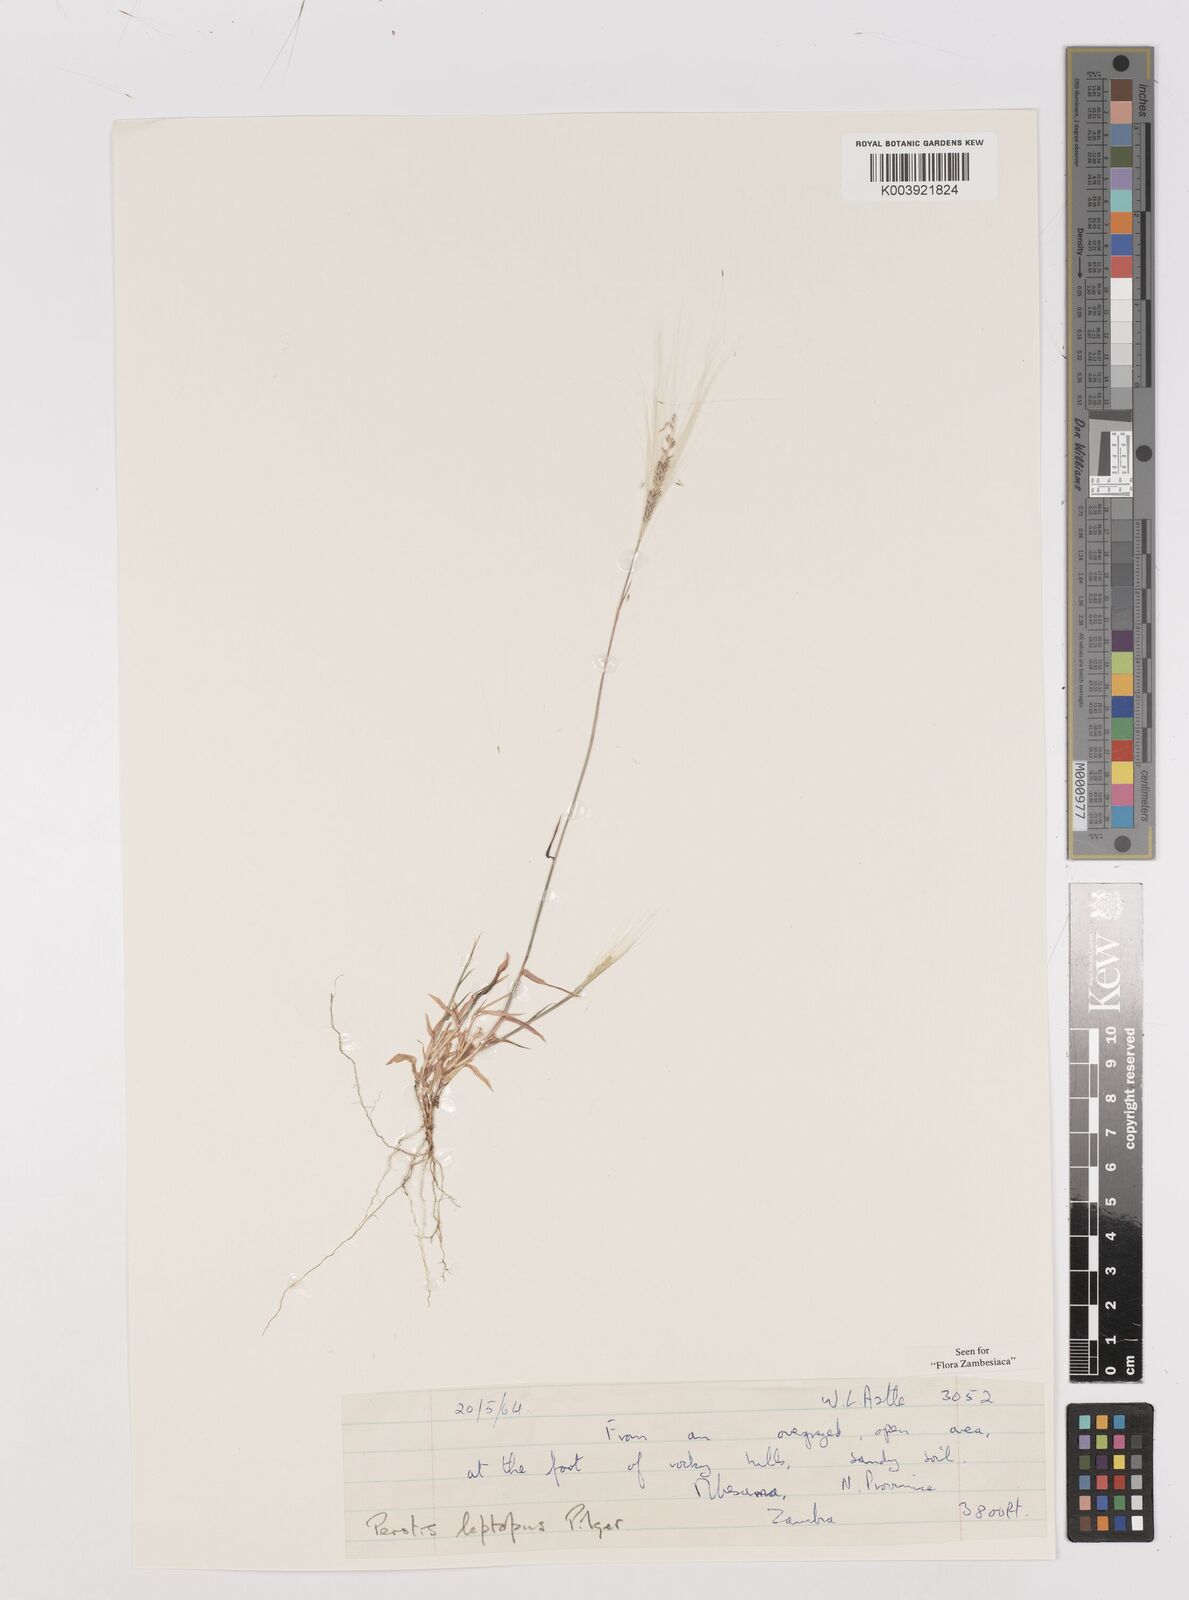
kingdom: Plantae
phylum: Tracheophyta
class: Liliopsida
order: Poales
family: Poaceae
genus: Perotis
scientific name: Perotis leptopus
